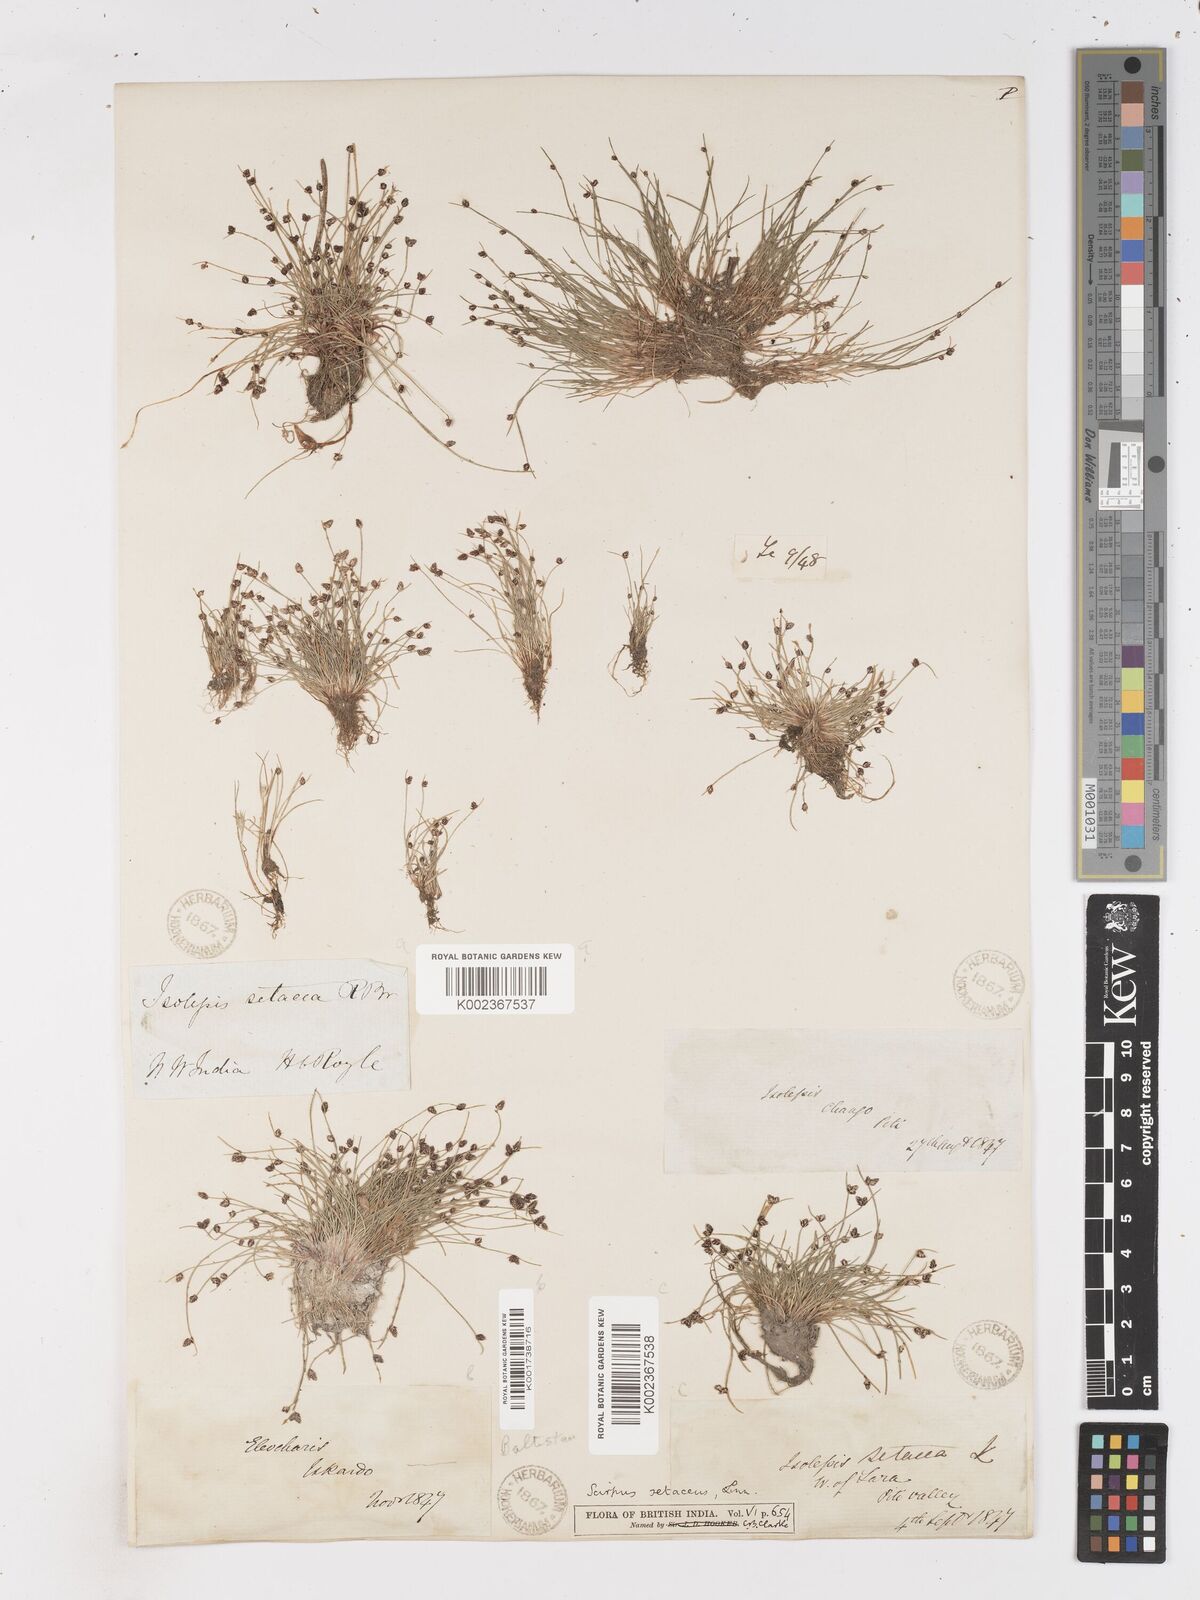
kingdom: Plantae
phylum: Tracheophyta
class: Liliopsida
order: Poales
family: Cyperaceae
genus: Isolepis
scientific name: Isolepis setacea
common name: Bristle club-rush
